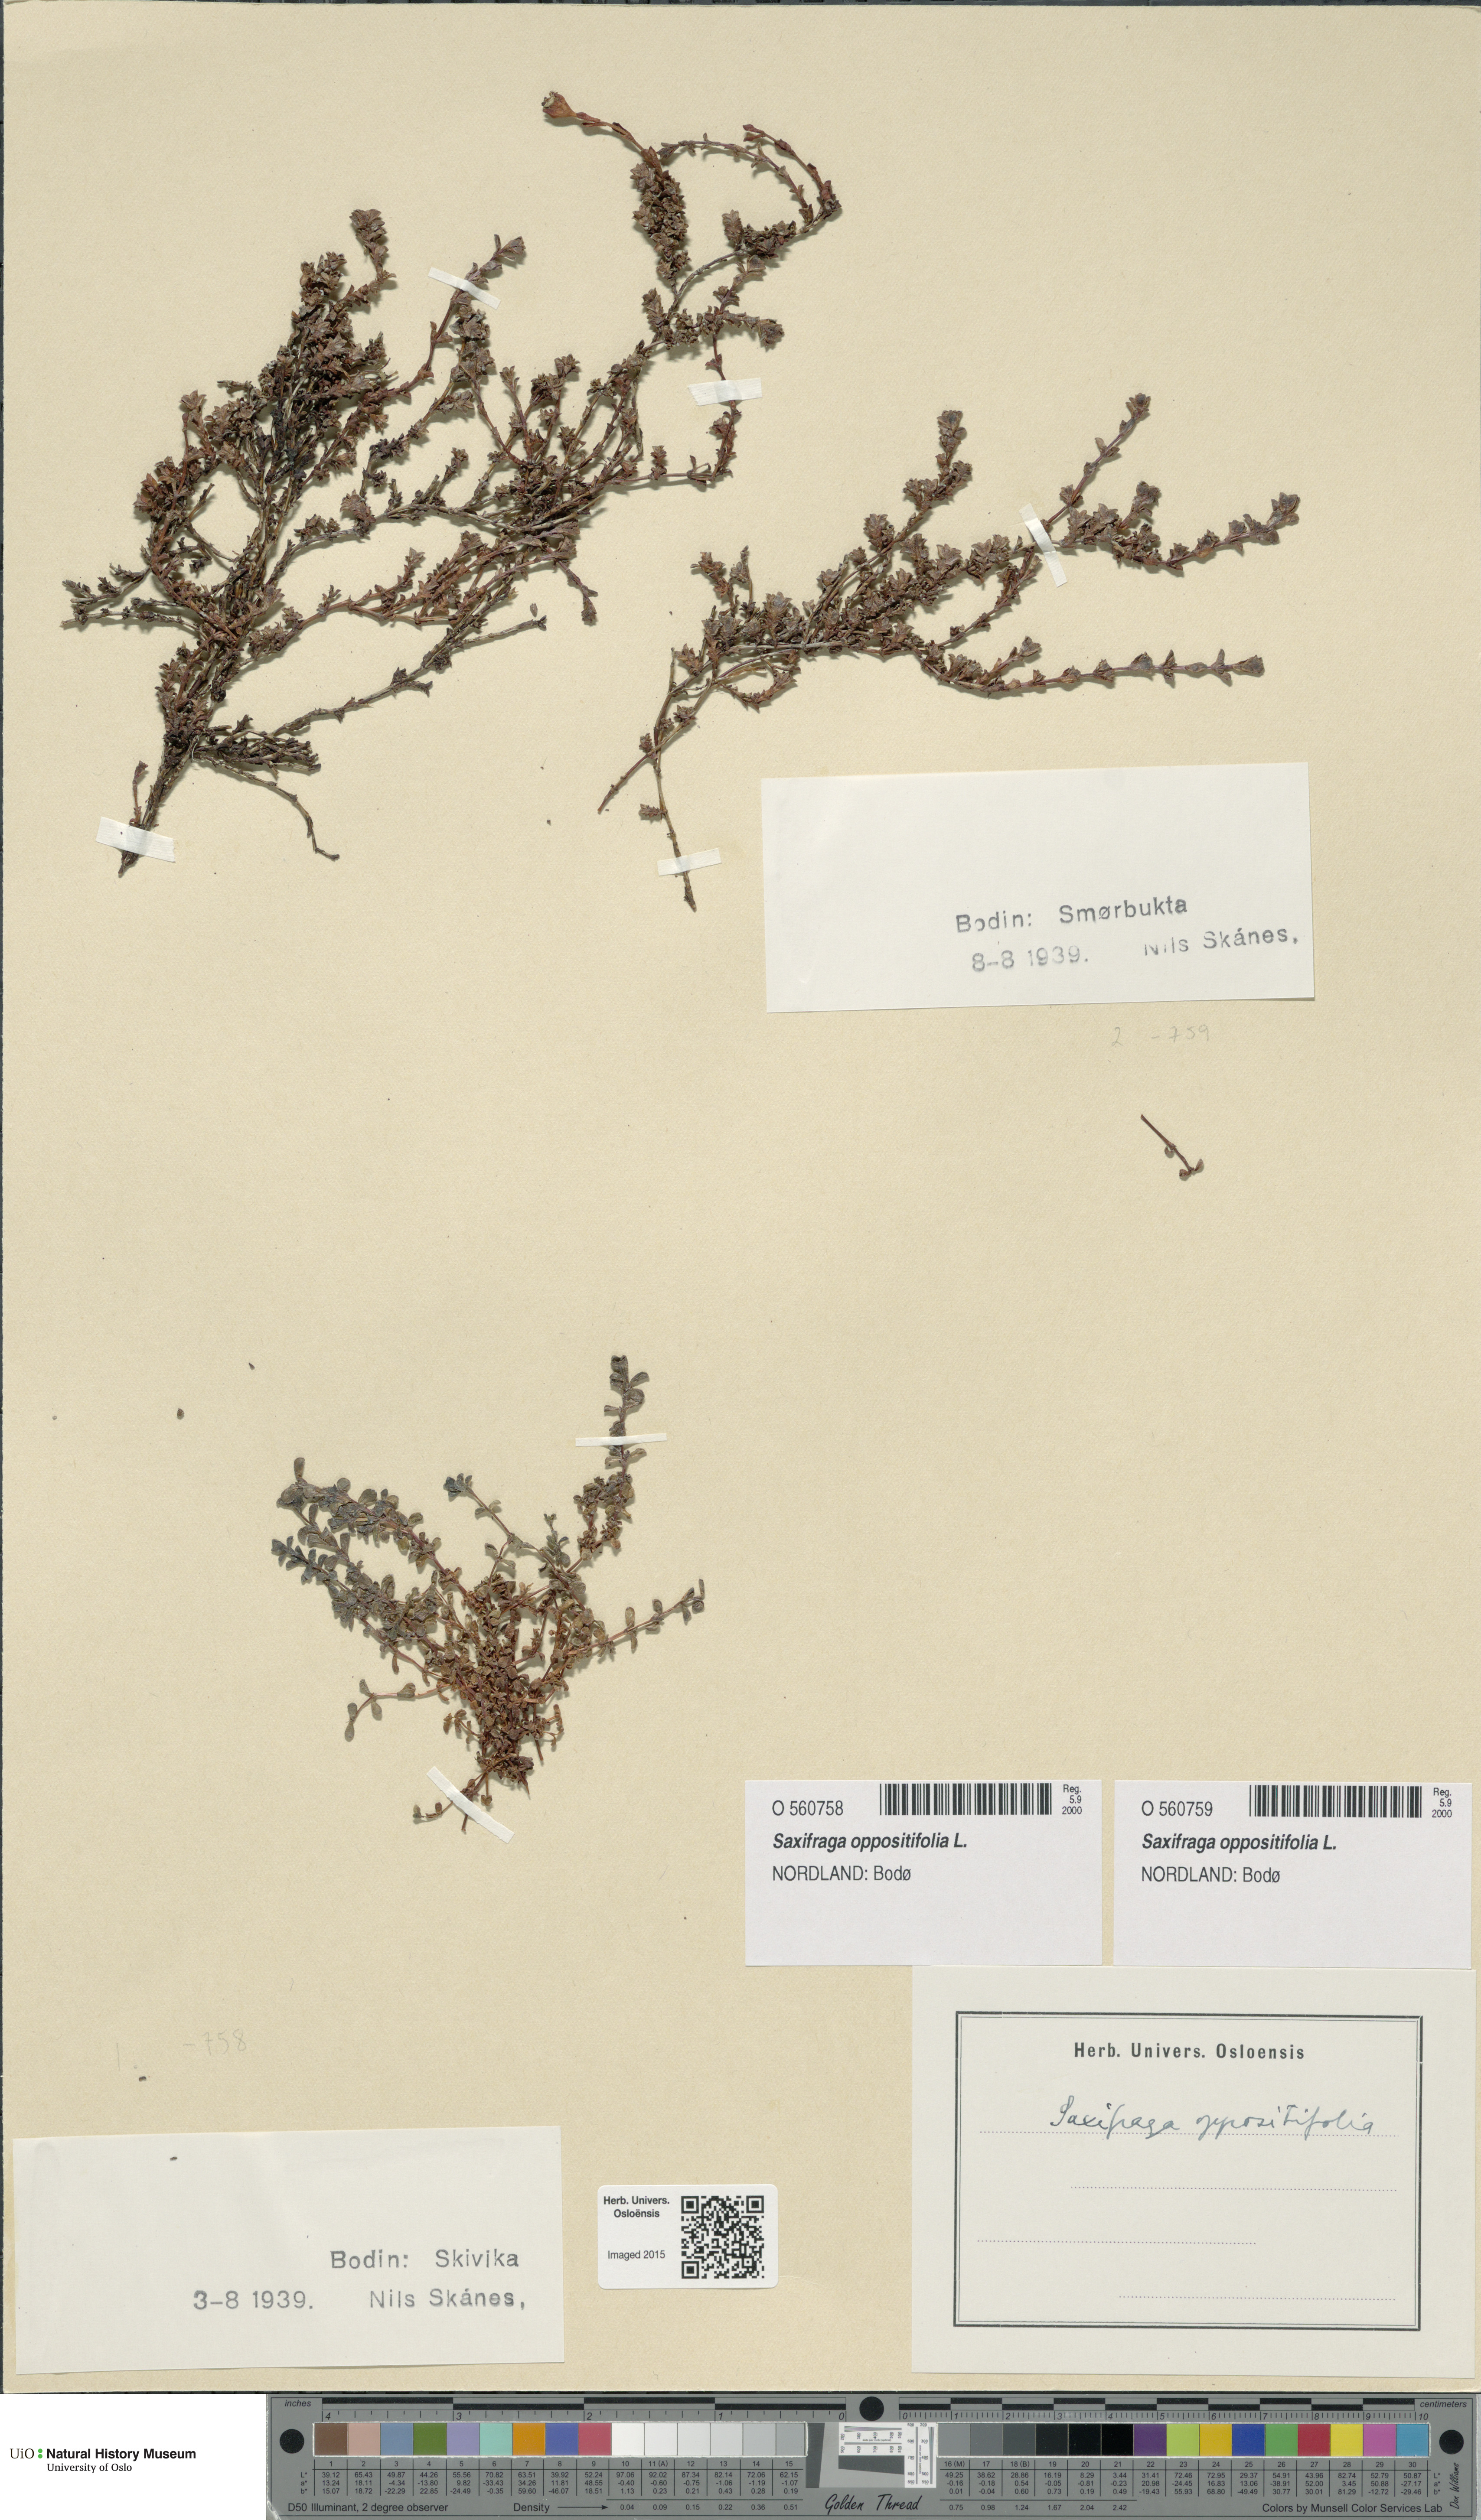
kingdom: Plantae
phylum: Tracheophyta
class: Magnoliopsida
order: Saxifragales
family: Saxifragaceae
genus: Saxifraga
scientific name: Saxifraga oppositifolia
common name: Purple saxifrage
